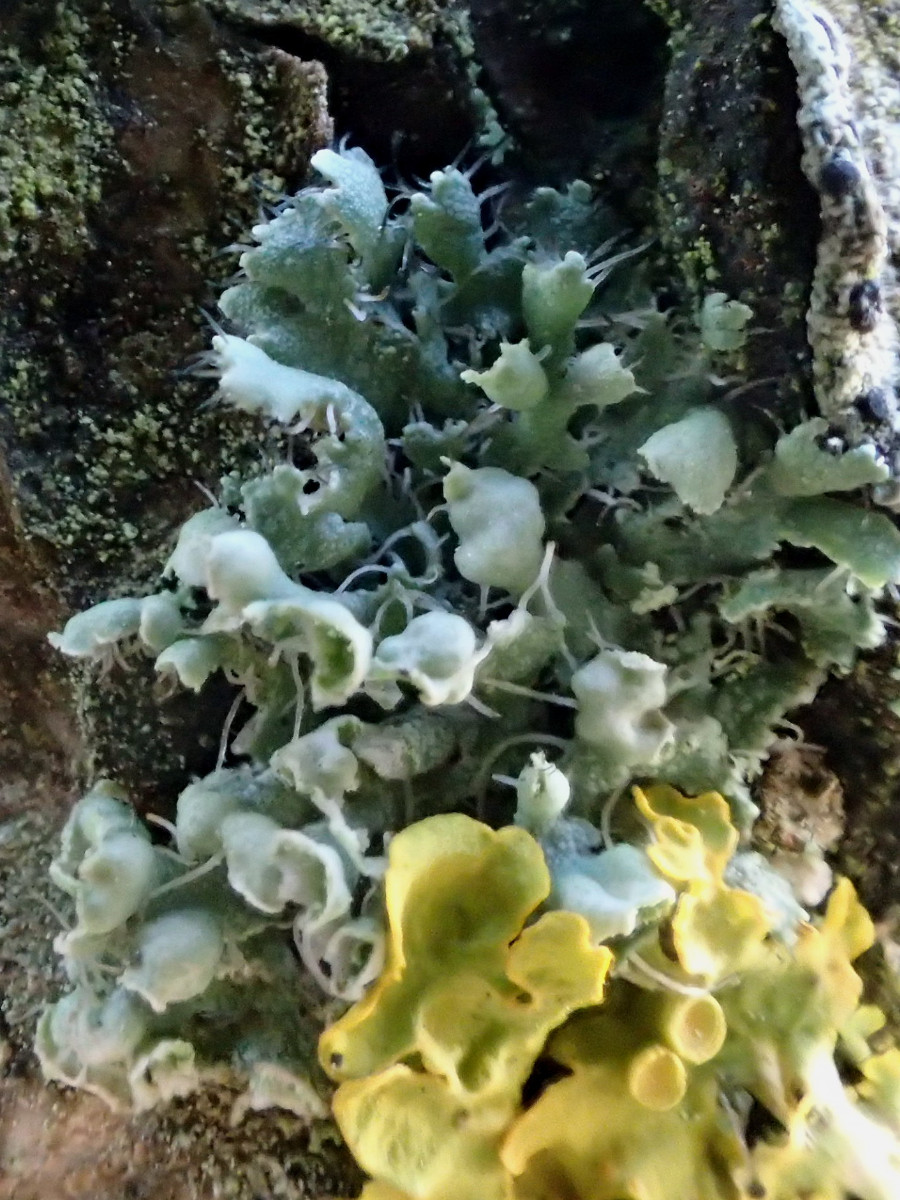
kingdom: Fungi
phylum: Ascomycota
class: Lecanoromycetes
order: Caliciales
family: Physciaceae
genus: Physcia
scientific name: Physcia adscendens
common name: hætte-rosetlav
